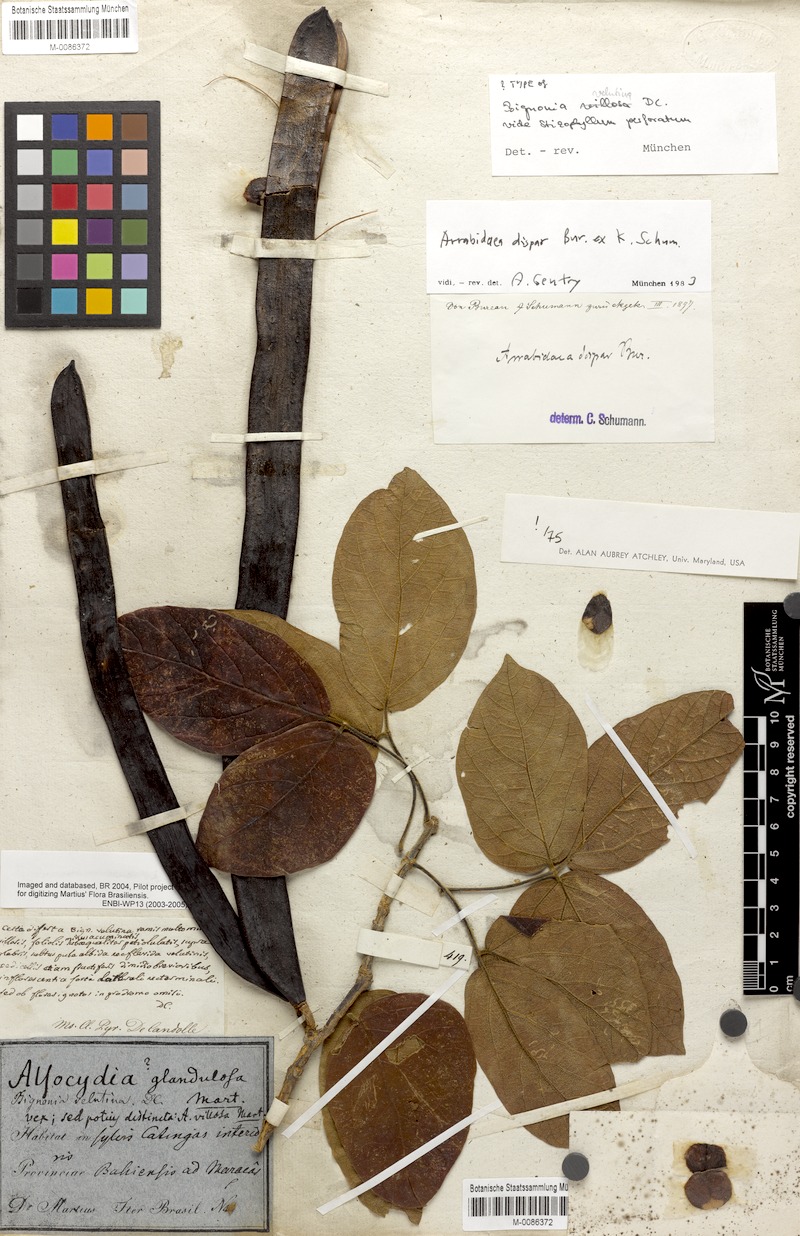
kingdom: Plantae
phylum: Tracheophyta
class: Magnoliopsida
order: Lamiales
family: Bignoniaceae
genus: Fridericia
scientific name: Fridericia dispar
